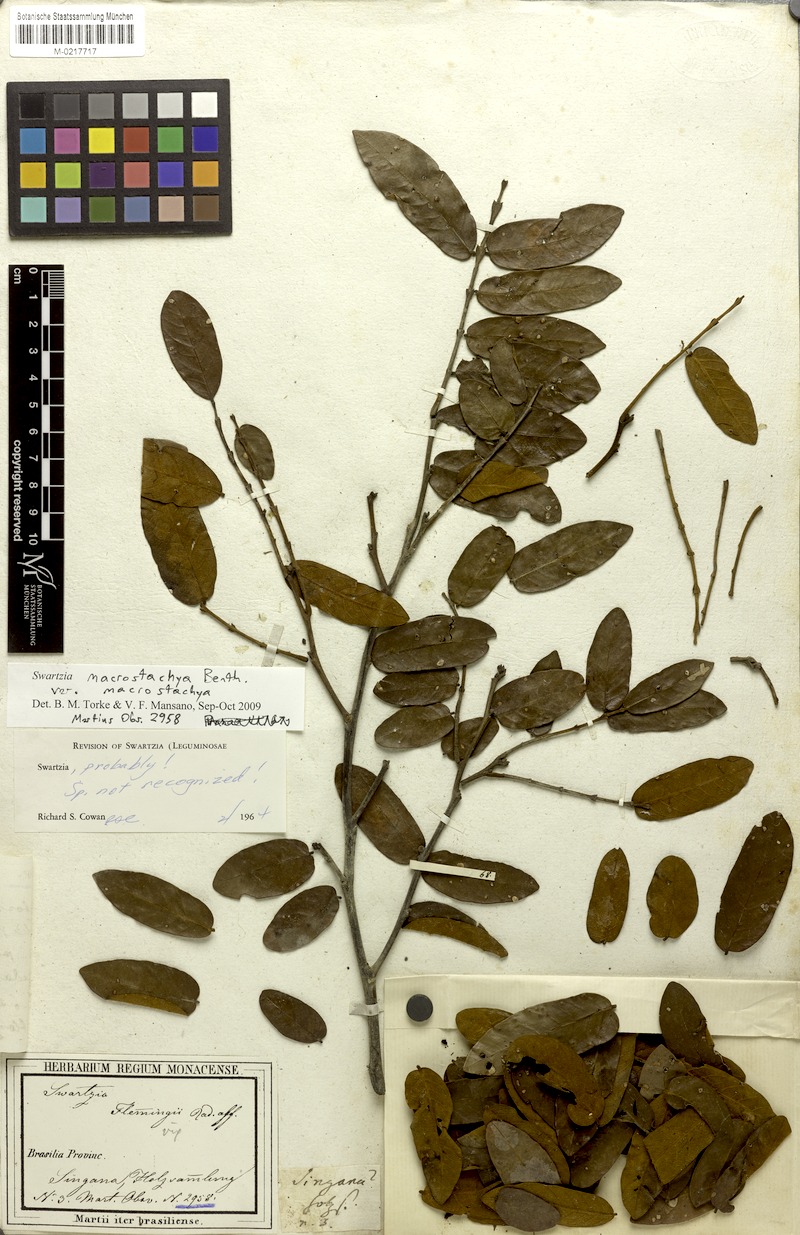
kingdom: Plantae
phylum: Tracheophyta
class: Magnoliopsida
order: Fabales
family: Fabaceae
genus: Swartzia
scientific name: Swartzia macrostachya
